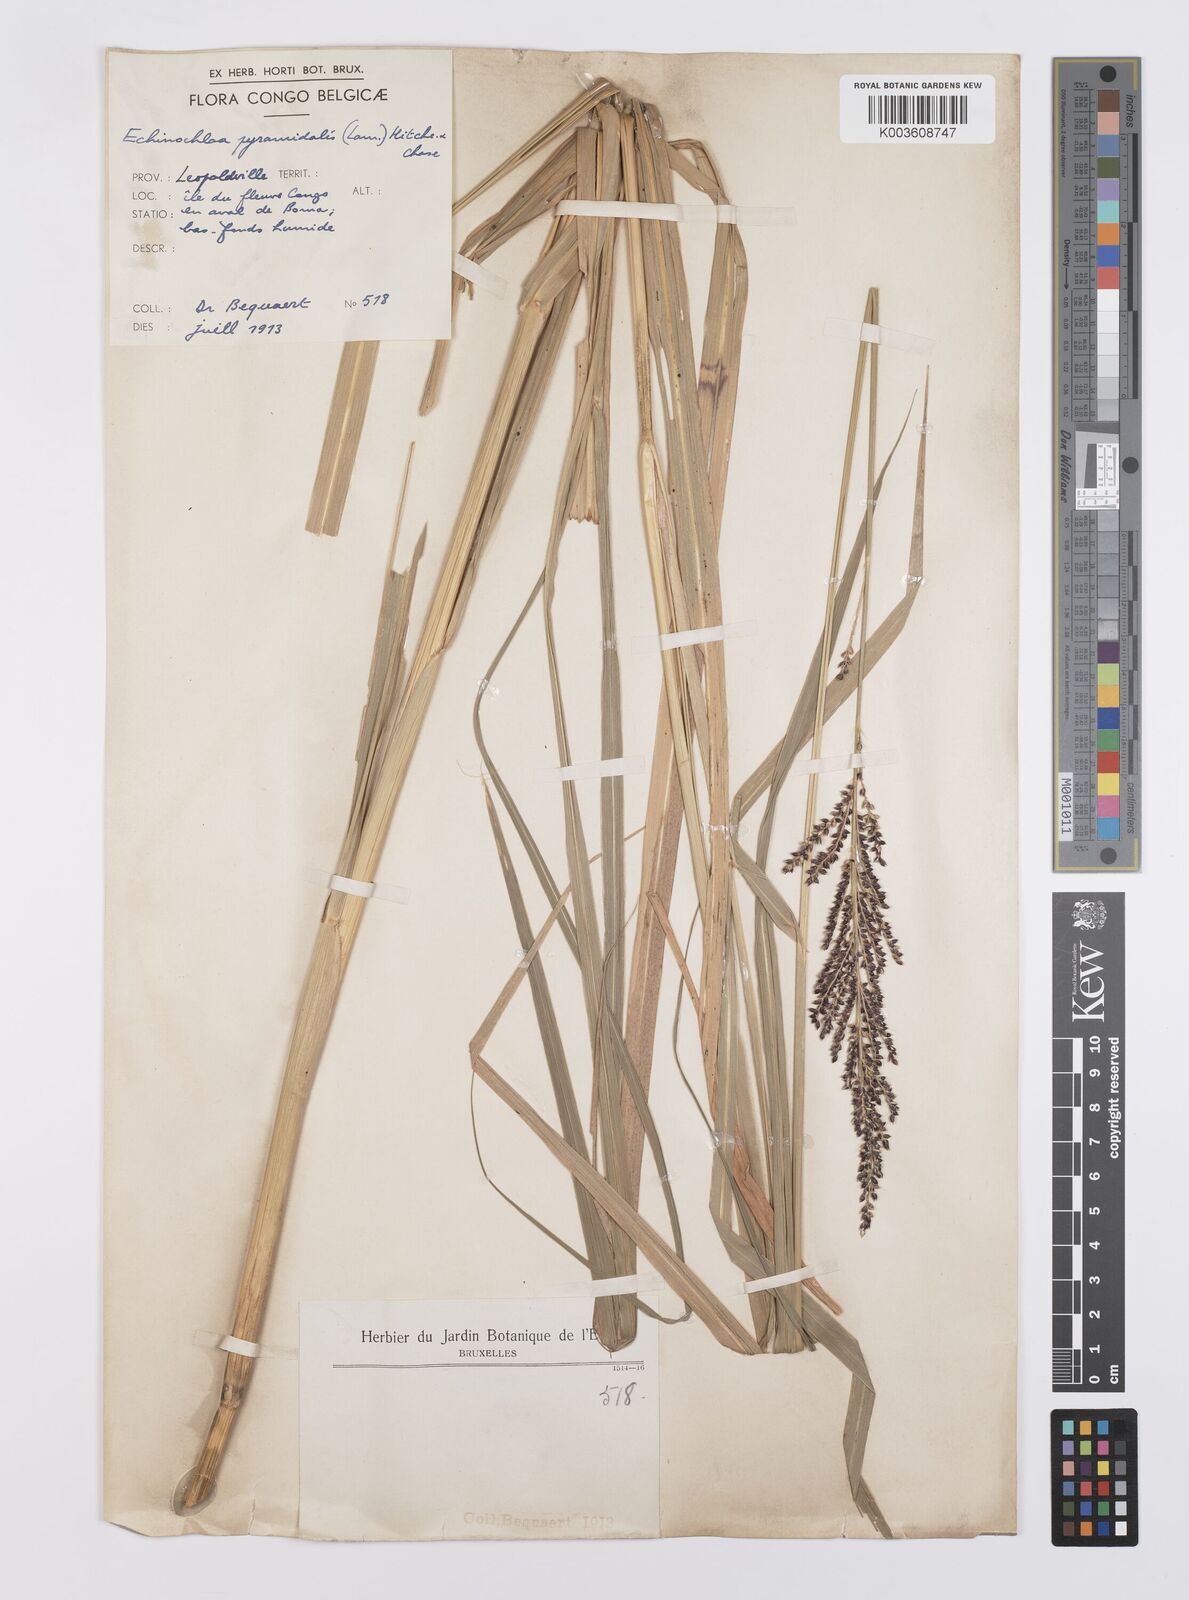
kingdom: Plantae
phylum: Tracheophyta
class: Liliopsida
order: Poales
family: Poaceae
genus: Echinochloa
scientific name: Echinochloa pyramidalis
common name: Antelope grass
